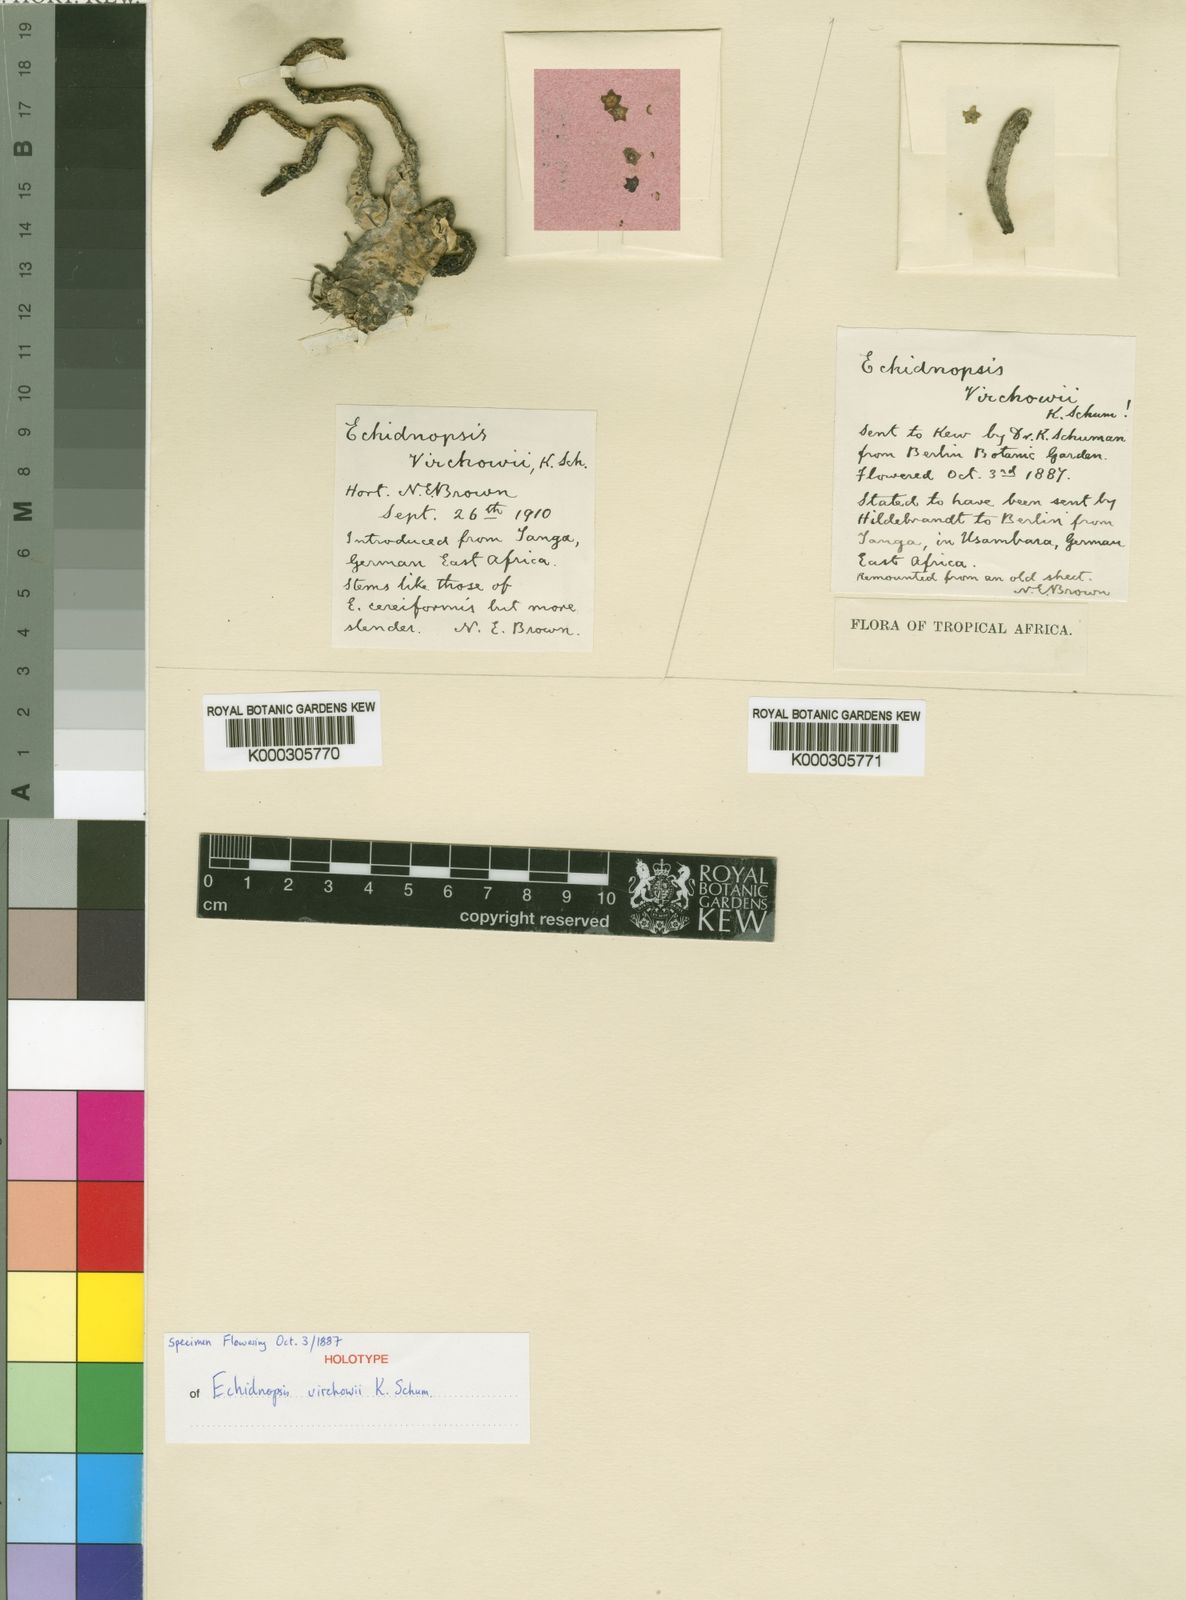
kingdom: Plantae
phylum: Tracheophyta
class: Magnoliopsida
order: Gentianales
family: Apocynaceae
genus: Ceropegia
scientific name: Ceropegia virchowii
